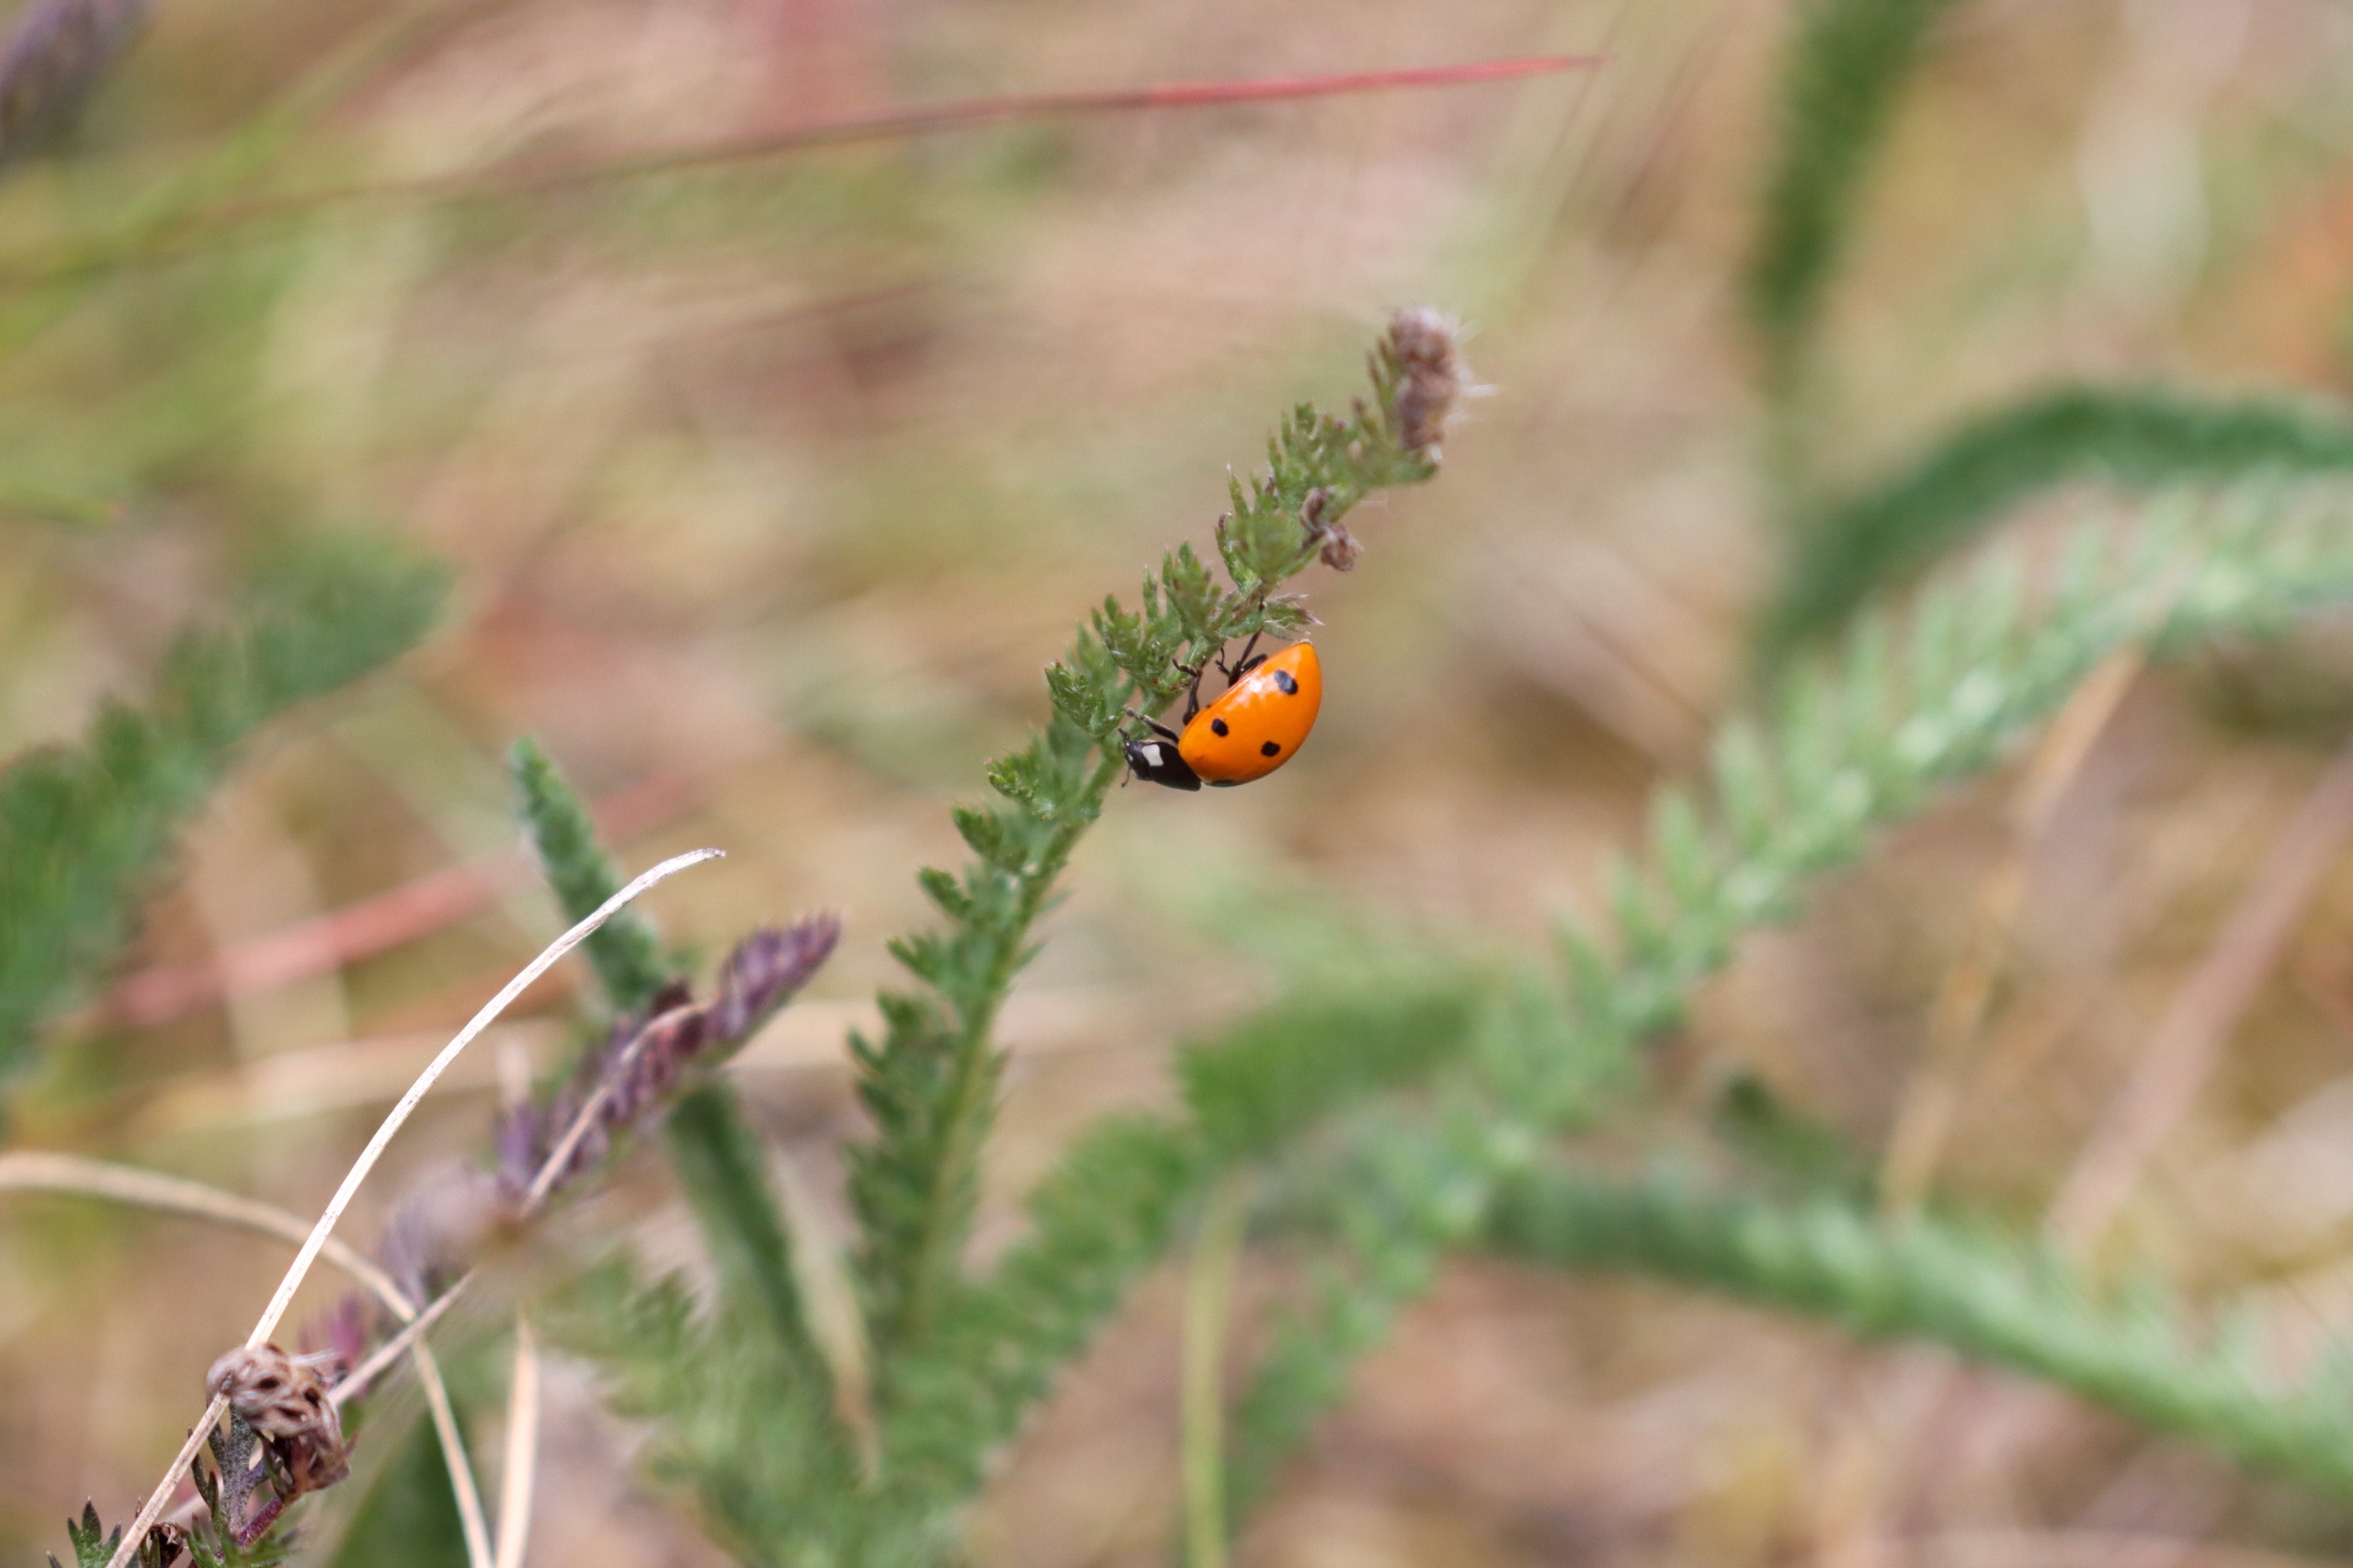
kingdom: Animalia
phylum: Arthropoda
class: Insecta
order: Coleoptera
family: Coccinellidae
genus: Coccinella
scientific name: Coccinella septempunctata
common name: Syvplettet mariehøne
